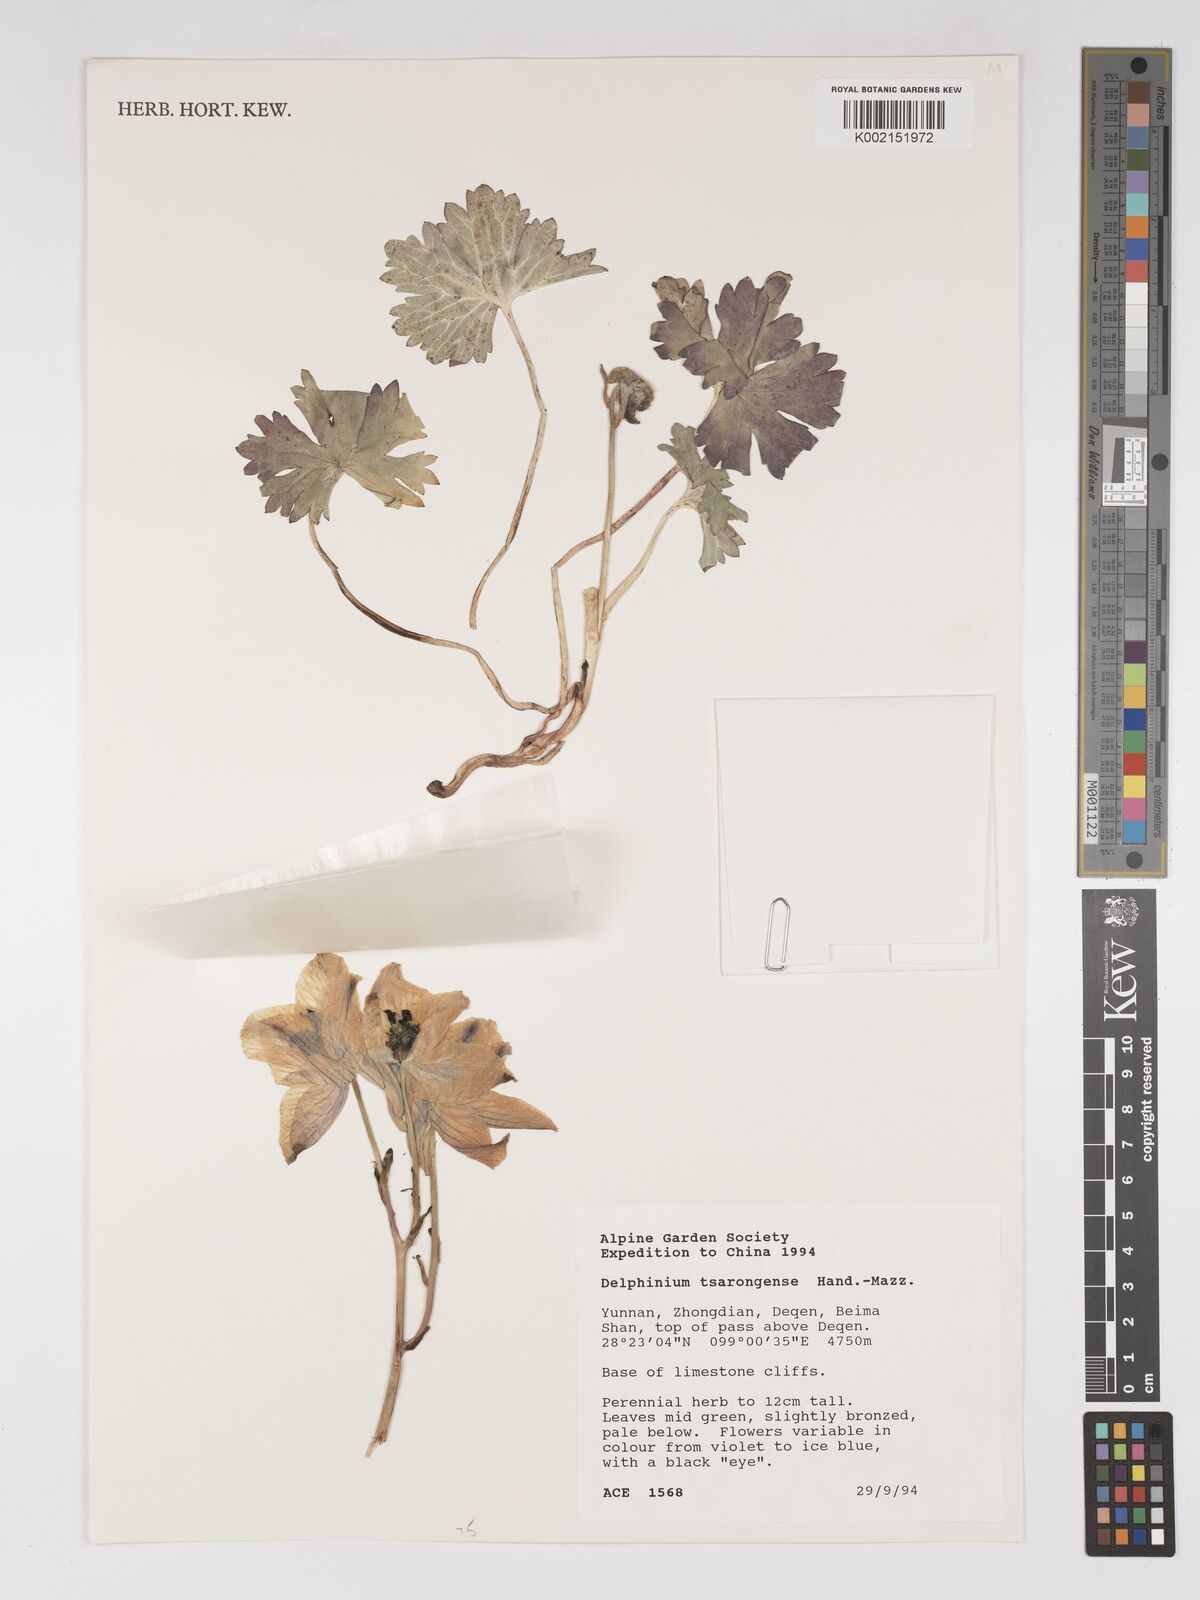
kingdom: Plantae
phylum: Tracheophyta
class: Magnoliopsida
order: Ranunculales
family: Ranunculaceae
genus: Delphinium
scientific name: Delphinium chrysotrichum
